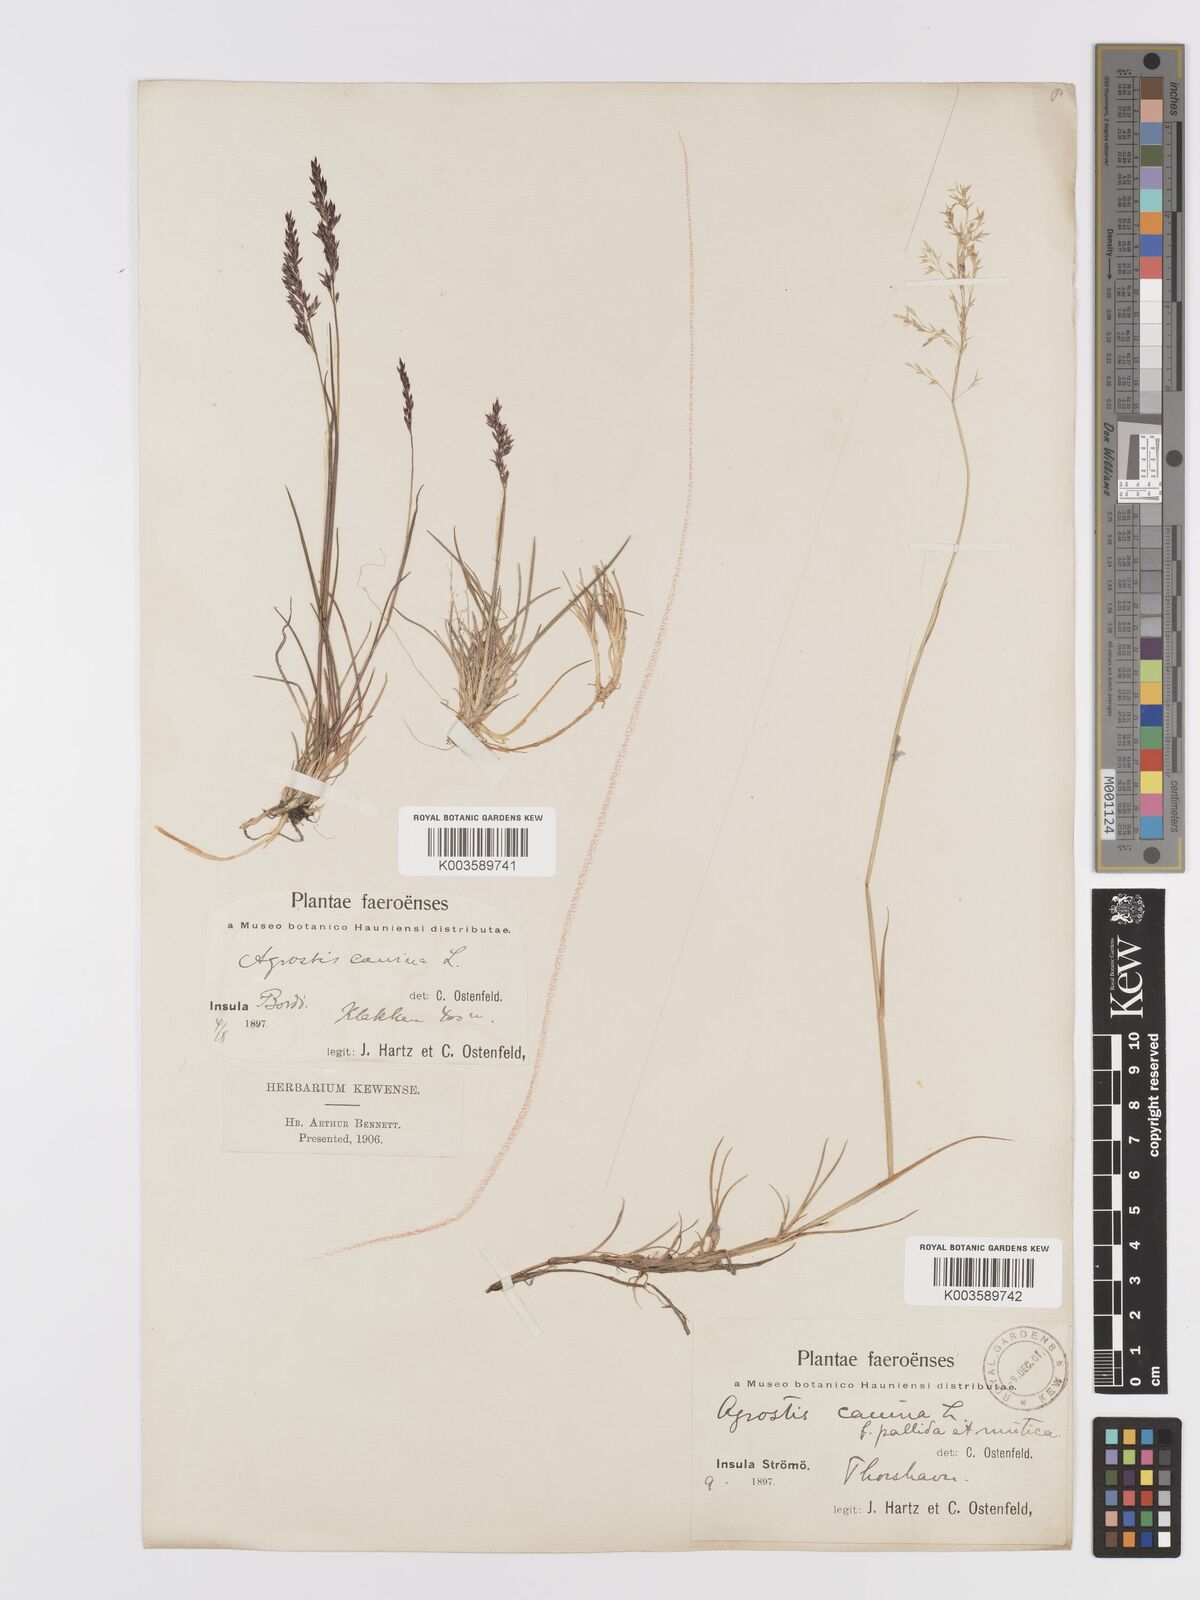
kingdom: Plantae
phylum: Tracheophyta
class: Liliopsida
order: Poales
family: Poaceae
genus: Agrostis
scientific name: Agrostis
